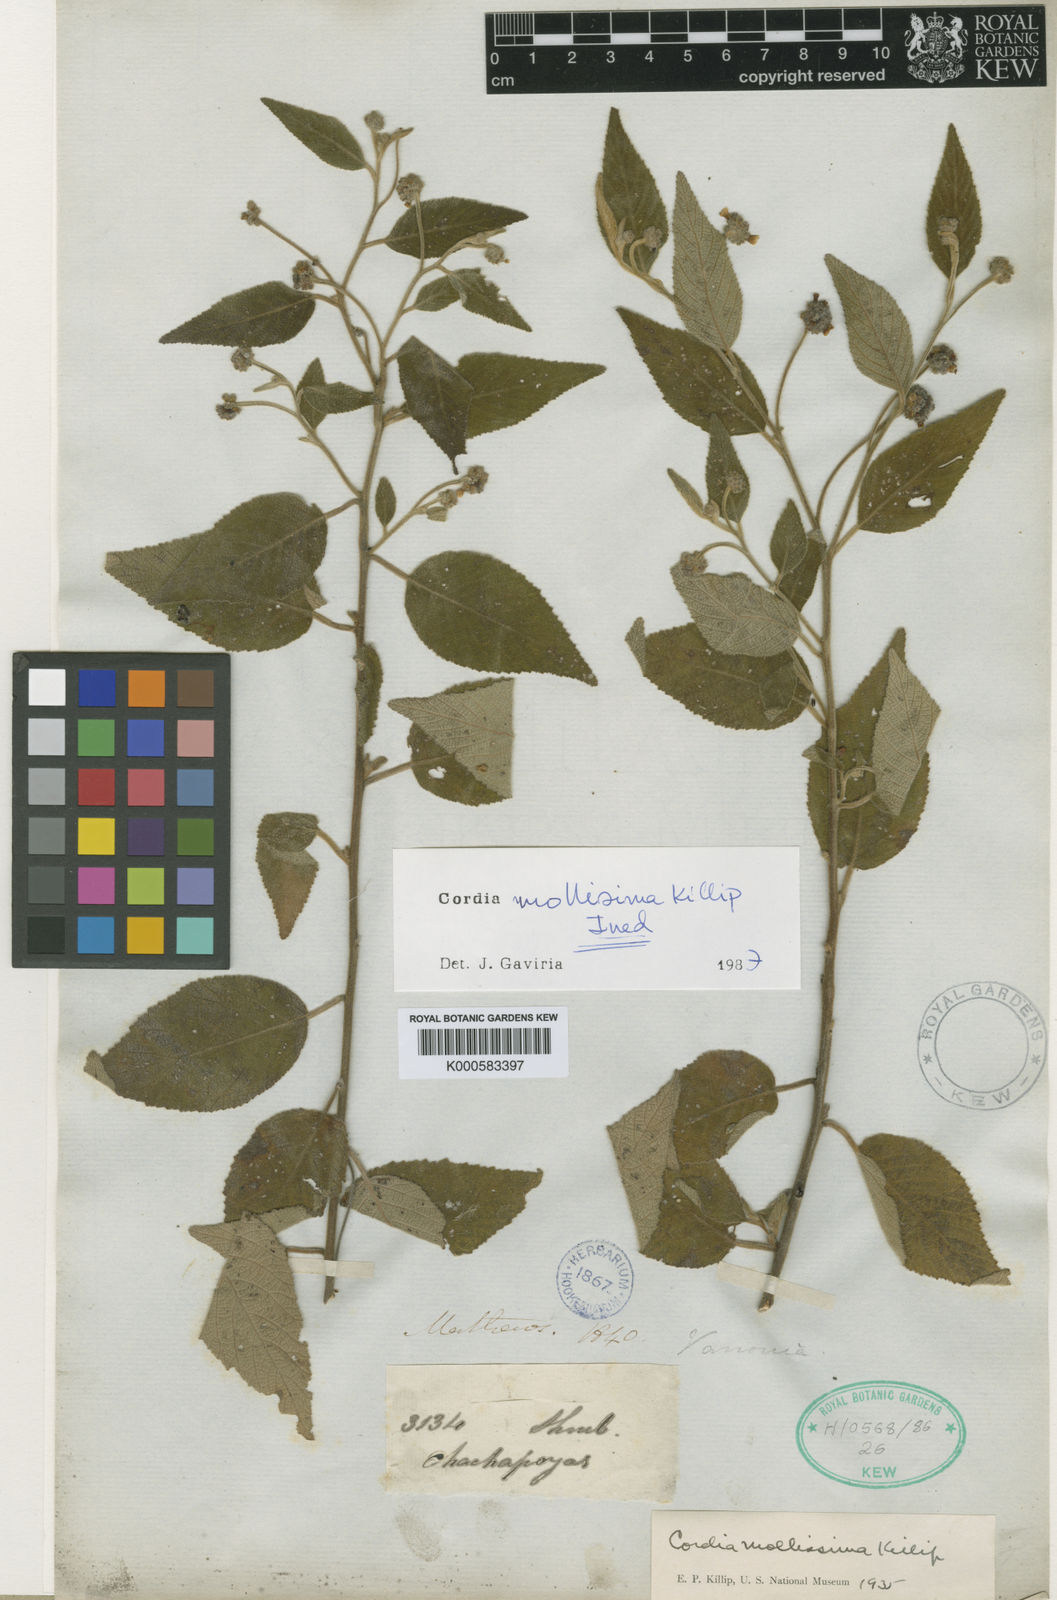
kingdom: Plantae
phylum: Tracheophyta
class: Magnoliopsida
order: Boraginales
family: Cordiaceae
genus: Cordia
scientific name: Cordia mexiana
